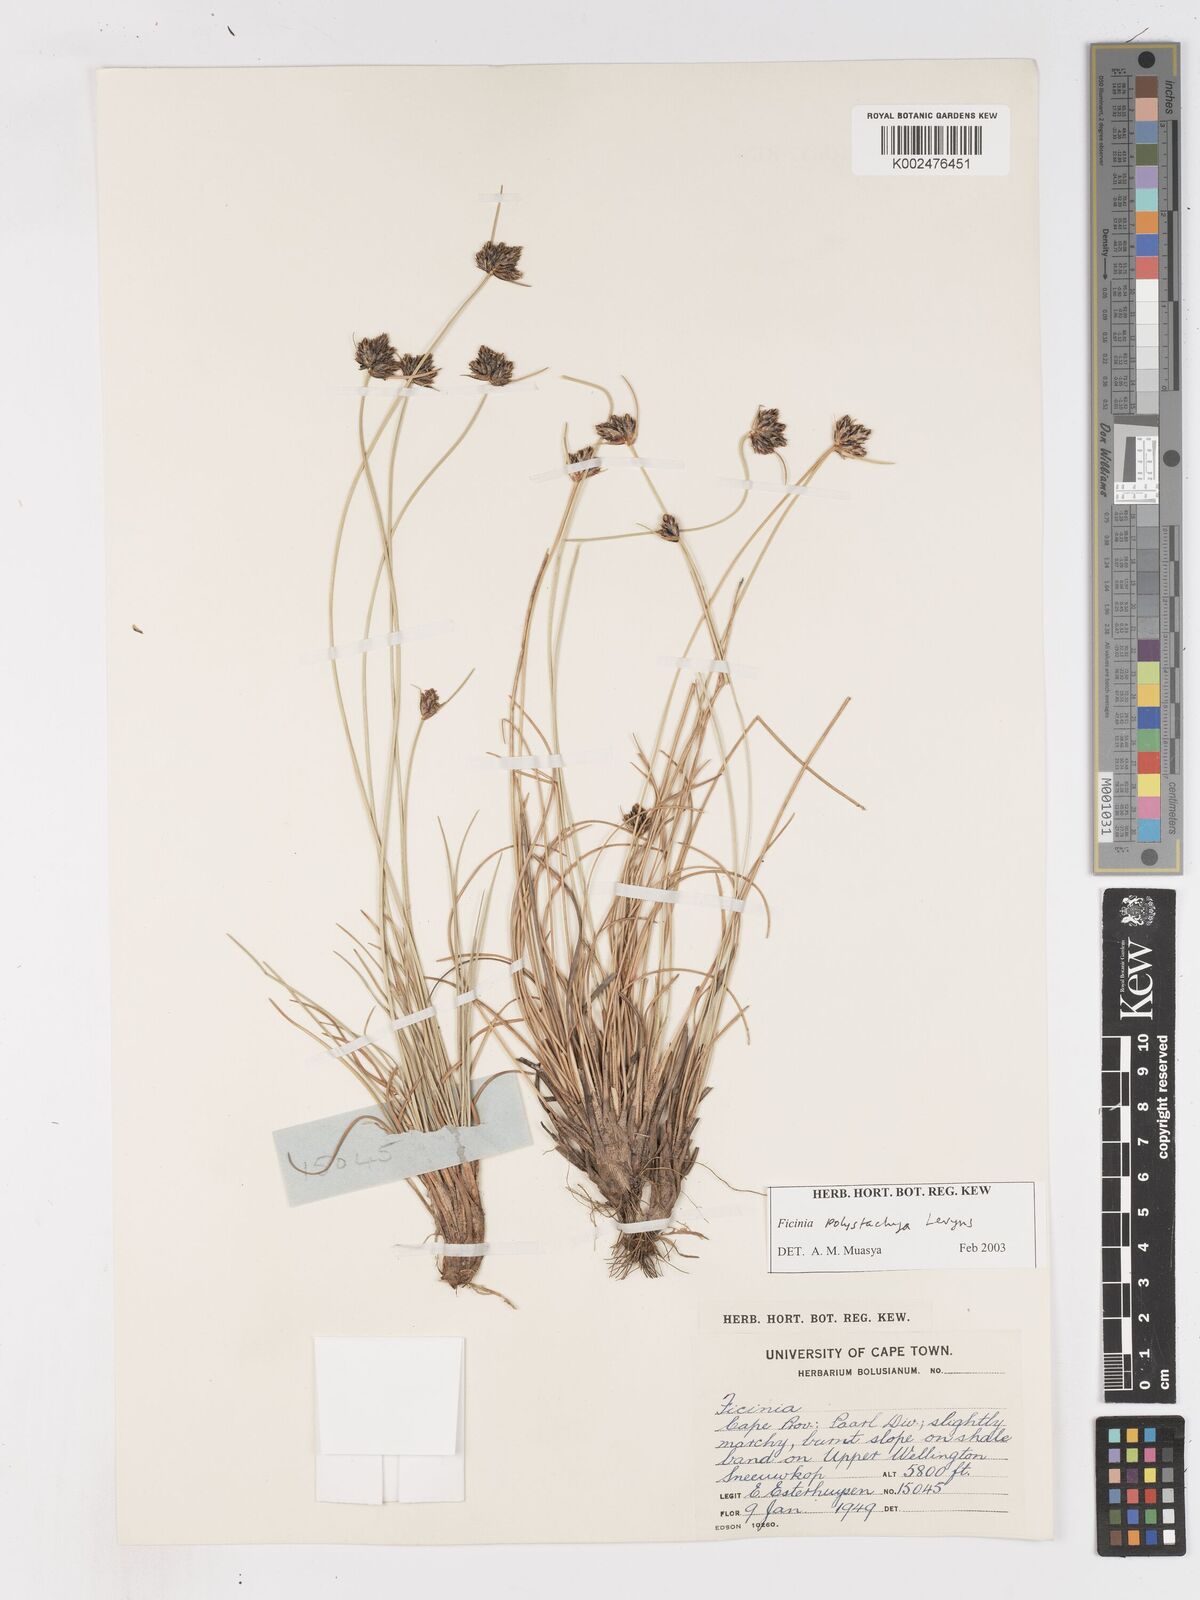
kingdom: Plantae
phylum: Tracheophyta
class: Liliopsida
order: Poales
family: Cyperaceae
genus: Ficinia
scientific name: Ficinia polystachya
